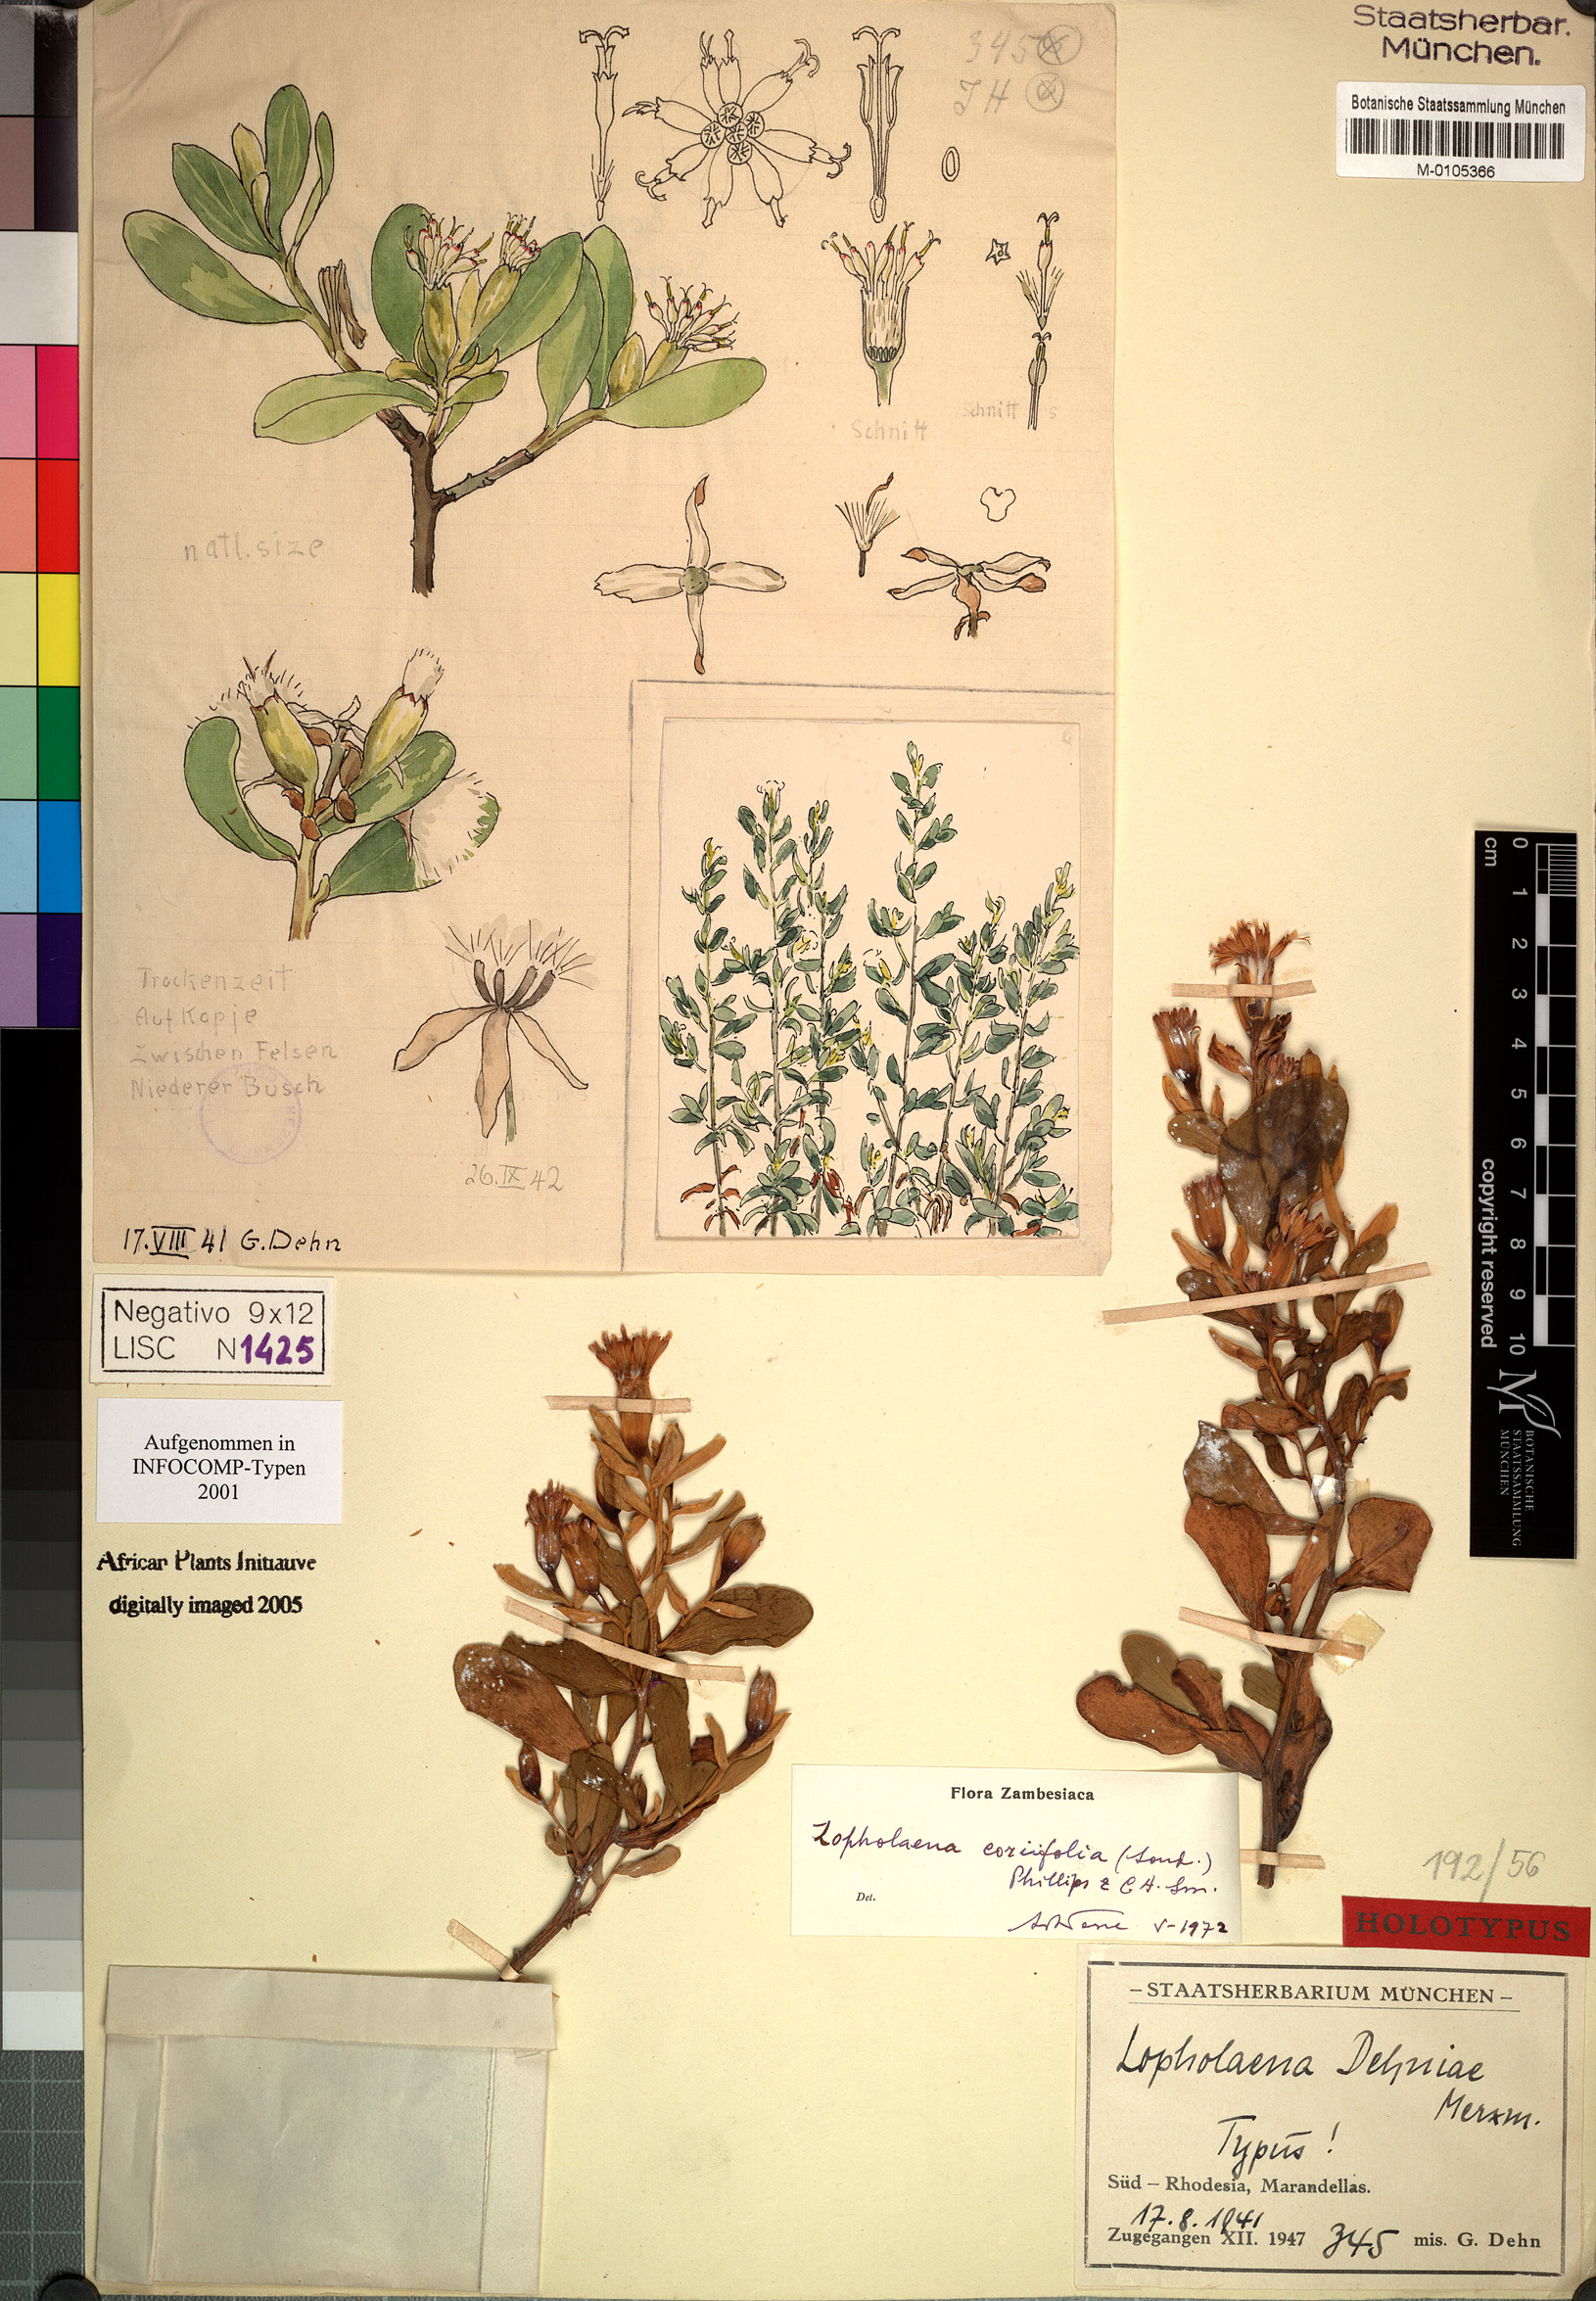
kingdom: Plantae
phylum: Tracheophyta
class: Magnoliopsida
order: Asterales
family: Asteraceae
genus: Lopholaena
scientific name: Lopholaena coriifolia
